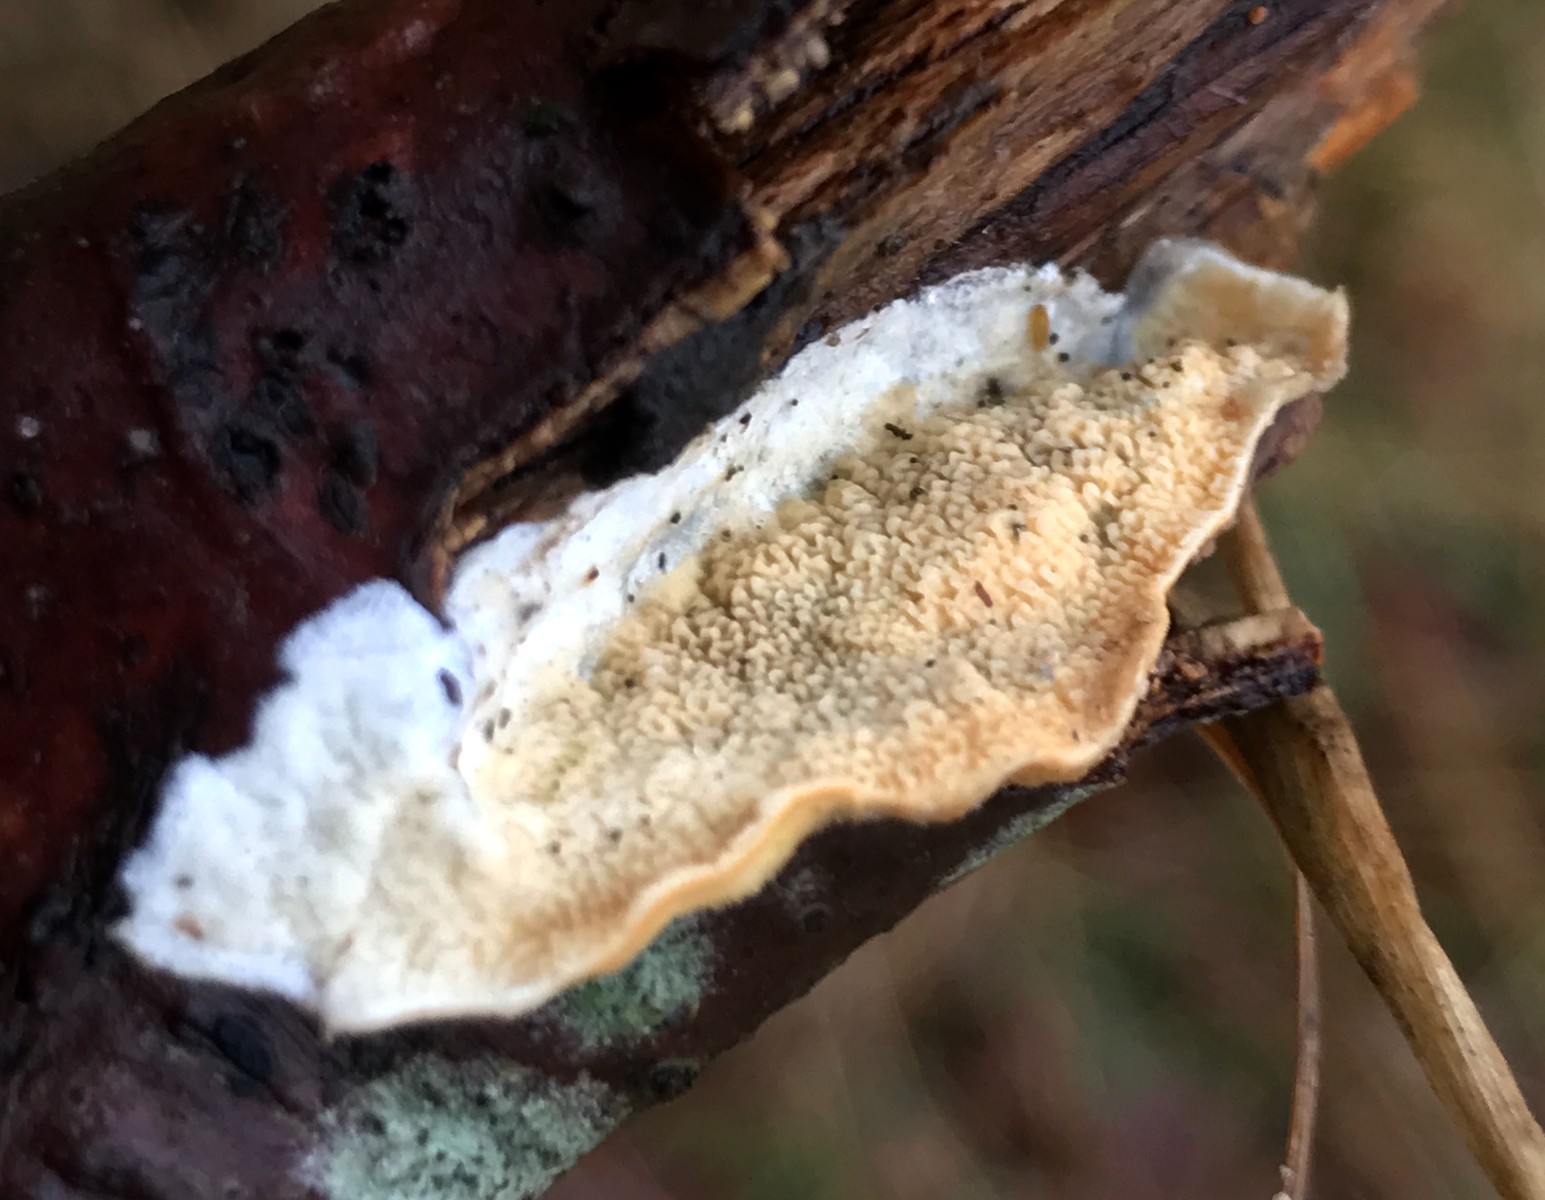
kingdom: Fungi
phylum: Basidiomycota
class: Agaricomycetes
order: Polyporales
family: Irpicaceae
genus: Byssomerulius
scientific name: Byssomerulius corium
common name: læder-åresvamp
